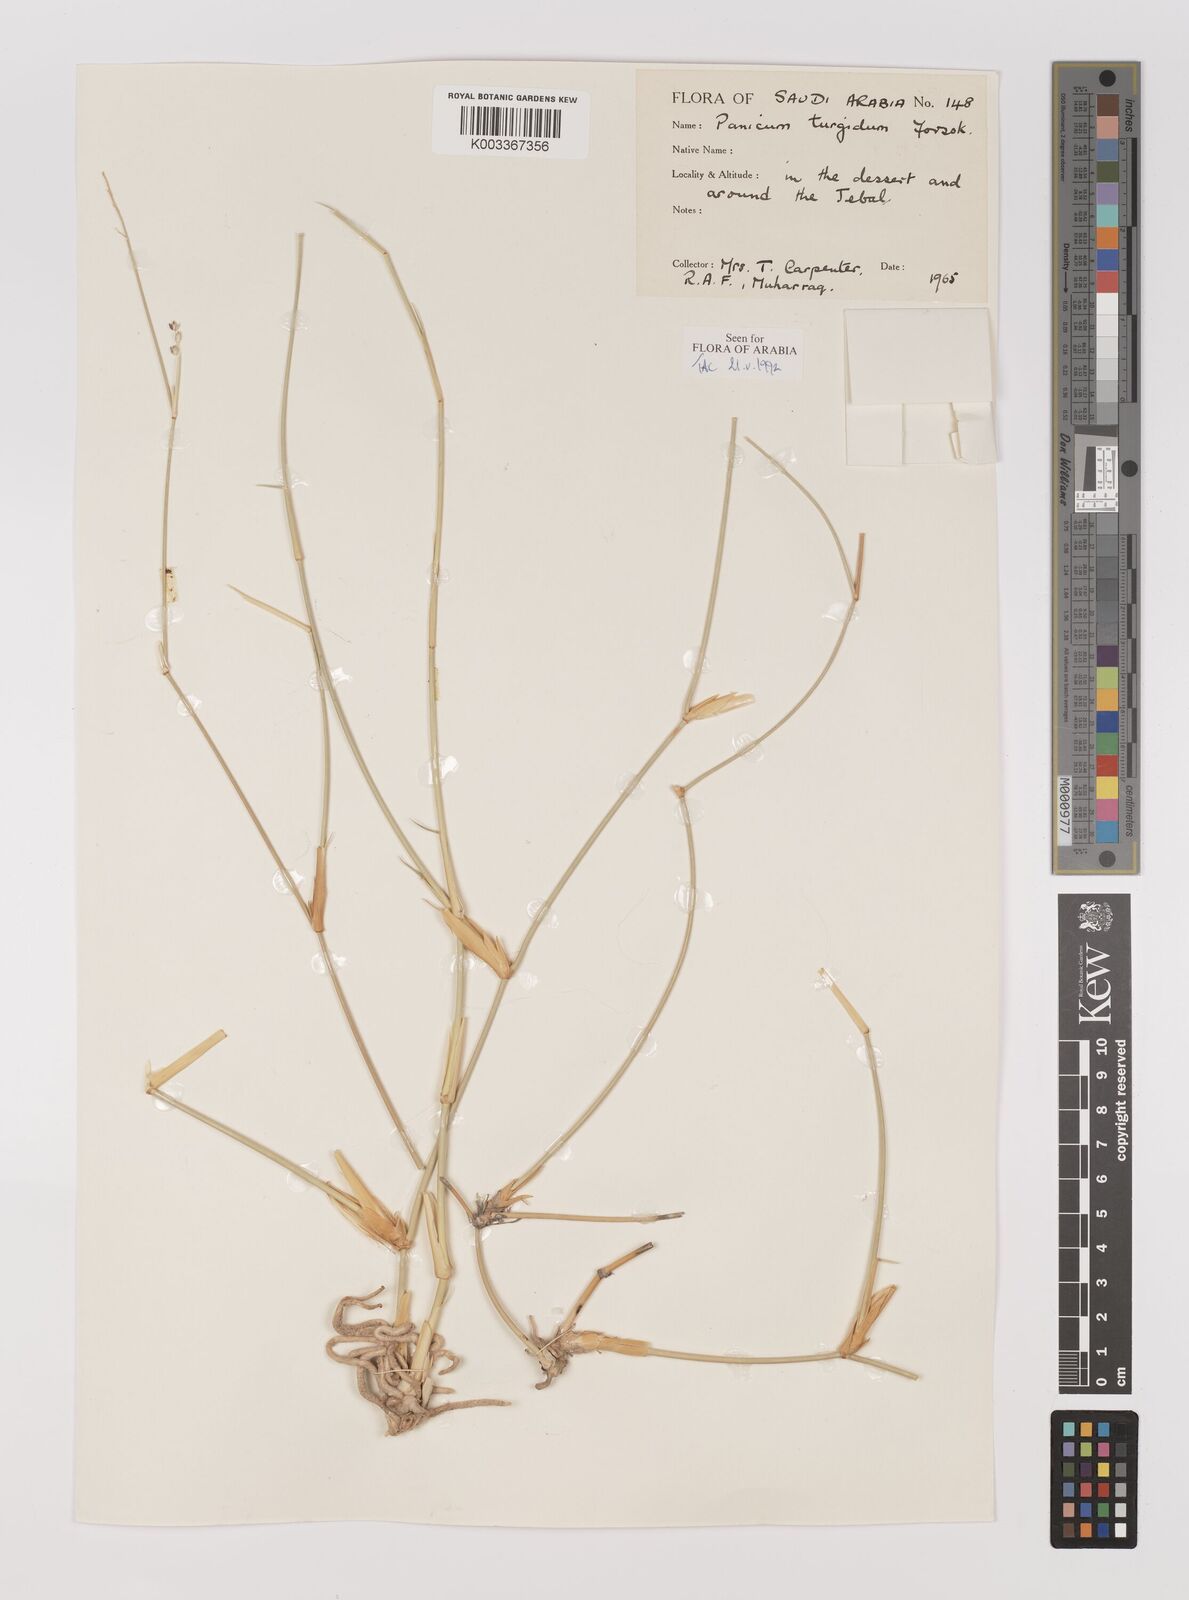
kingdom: Plantae
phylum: Tracheophyta
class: Liliopsida
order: Poales
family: Poaceae
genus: Panicum
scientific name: Panicum turgidum
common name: Desert grass
